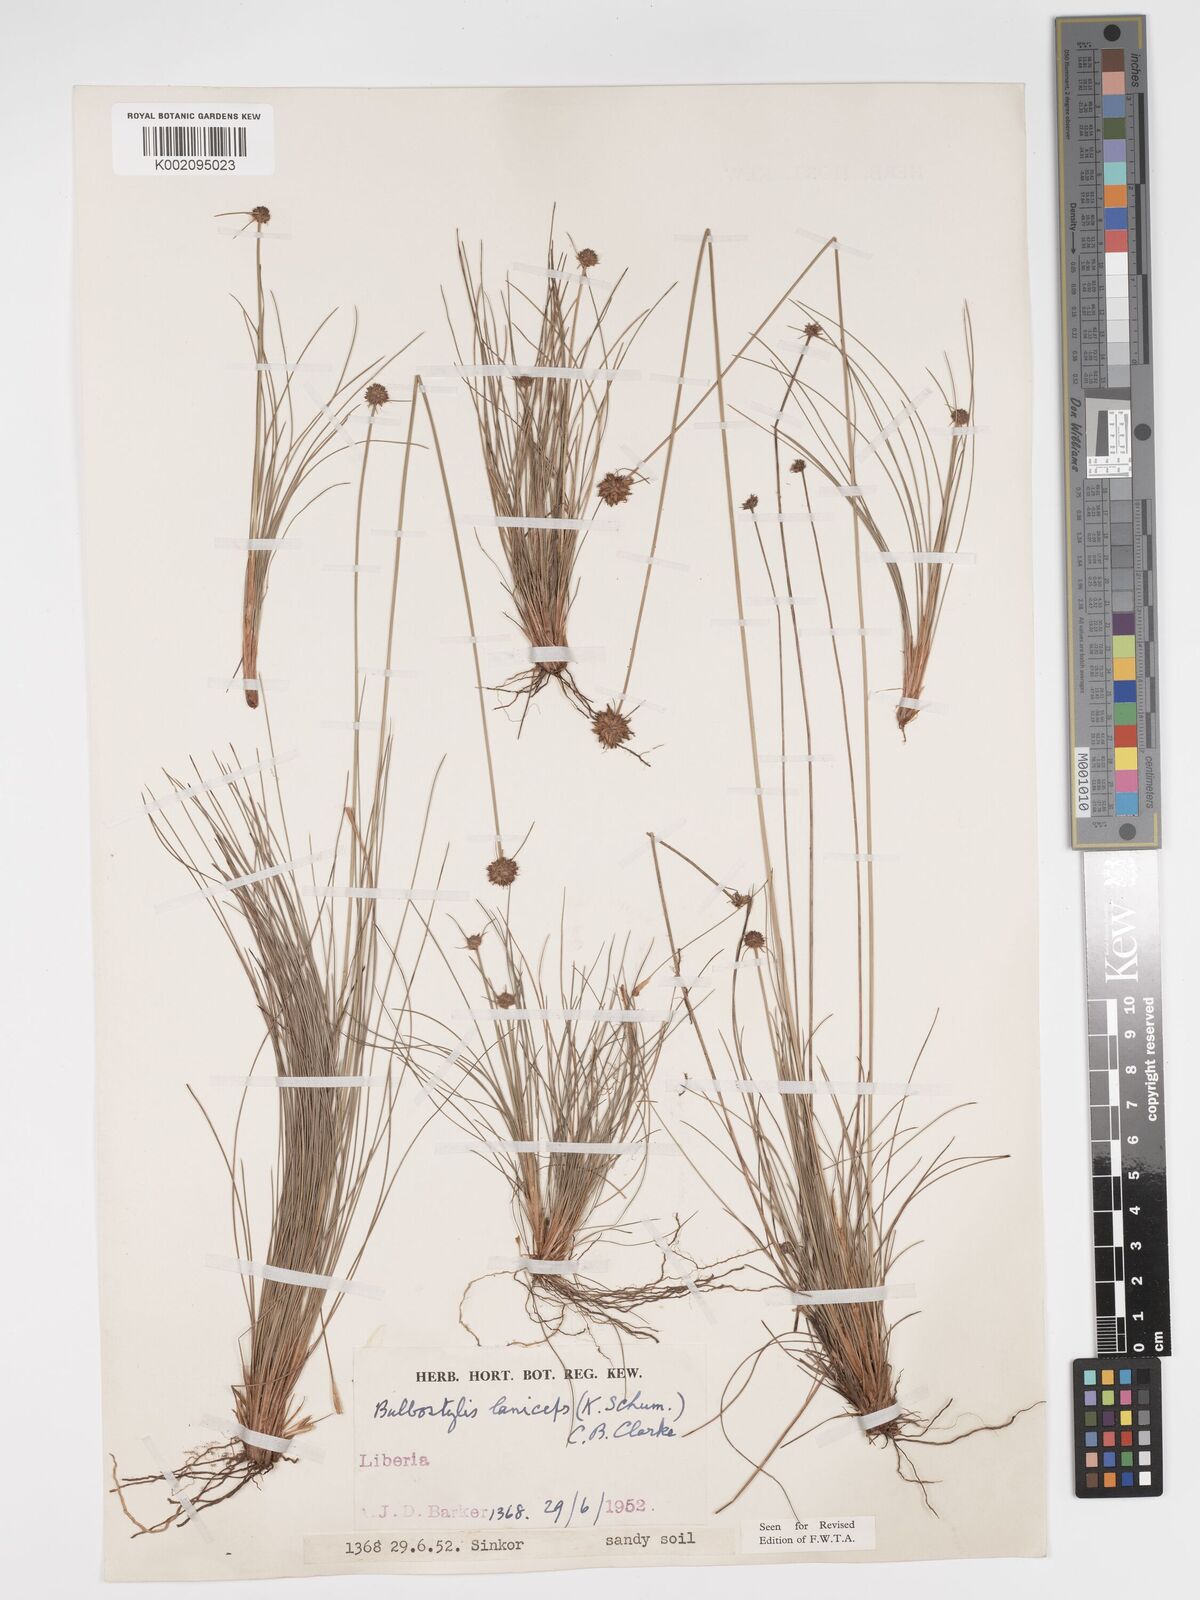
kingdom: Plantae
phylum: Tracheophyta
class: Liliopsida
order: Poales
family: Cyperaceae
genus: Bulbostylis
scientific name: Bulbostylis laniceps
